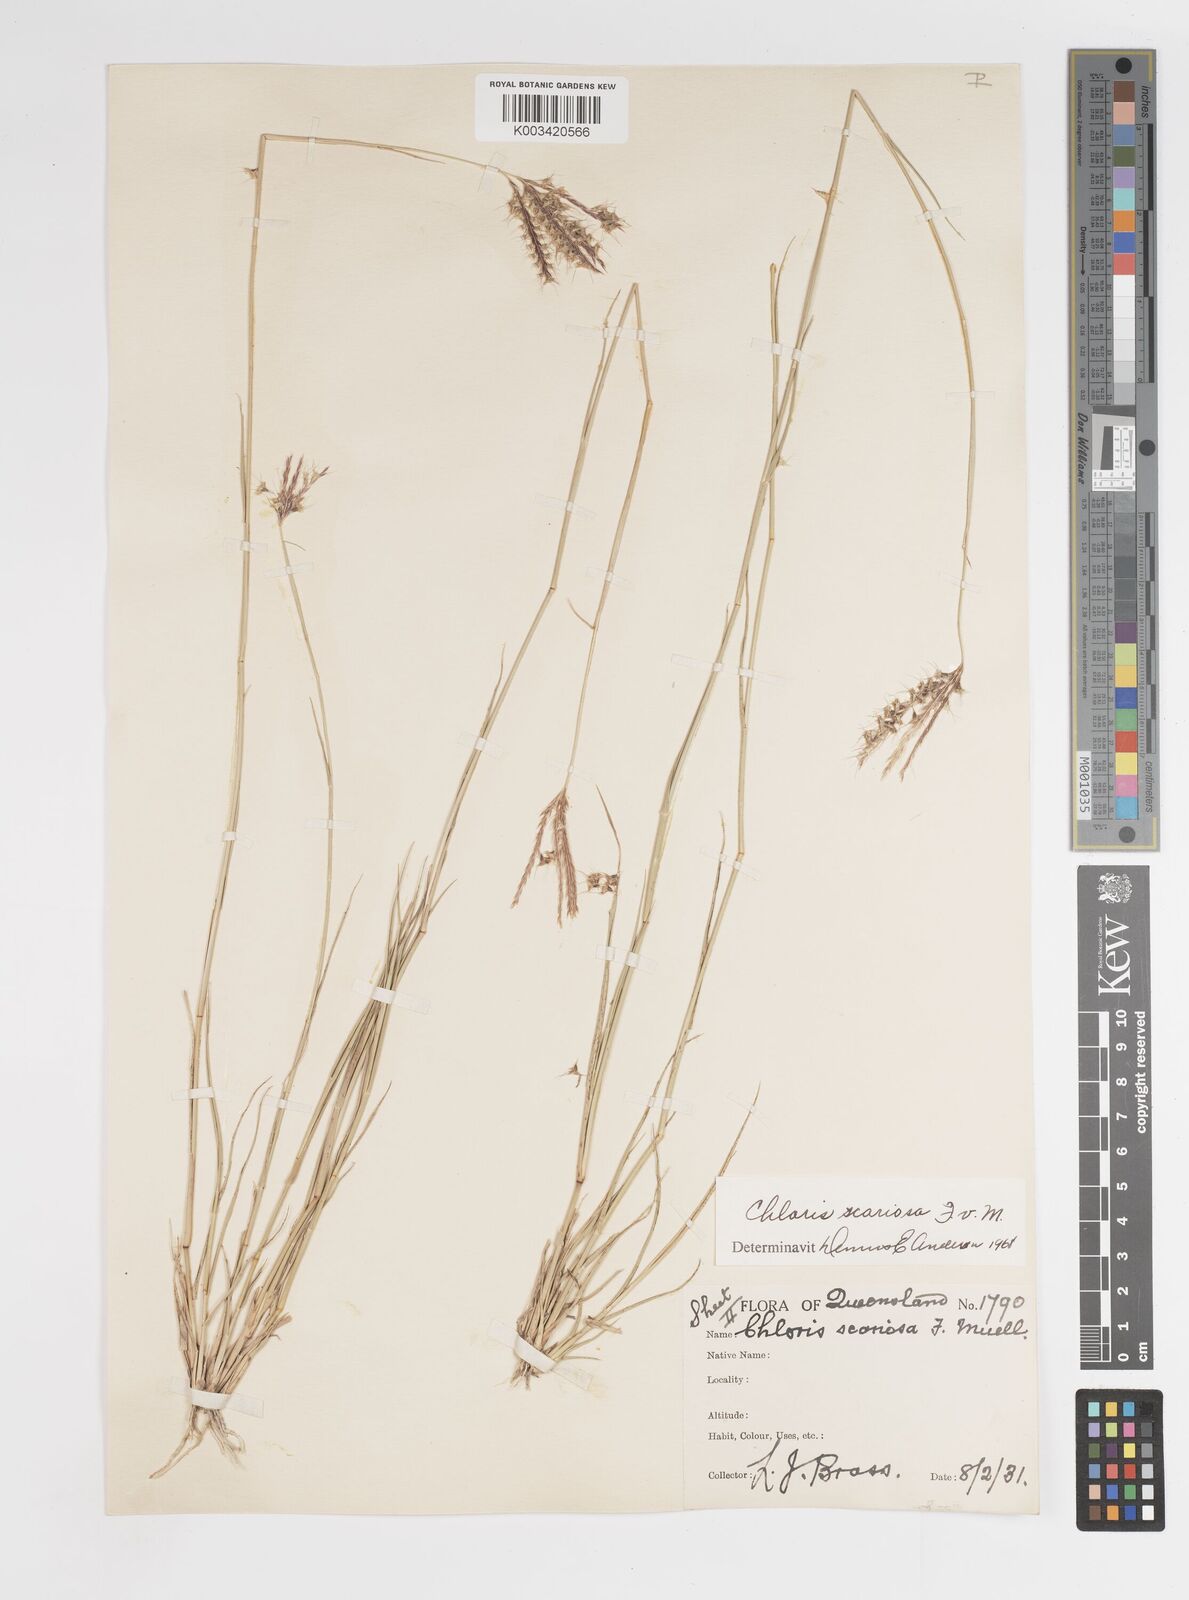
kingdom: Plantae
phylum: Tracheophyta
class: Liliopsida
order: Poales
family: Poaceae
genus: Oxychloris
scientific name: Oxychloris scariosa
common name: Winged windmill grass
